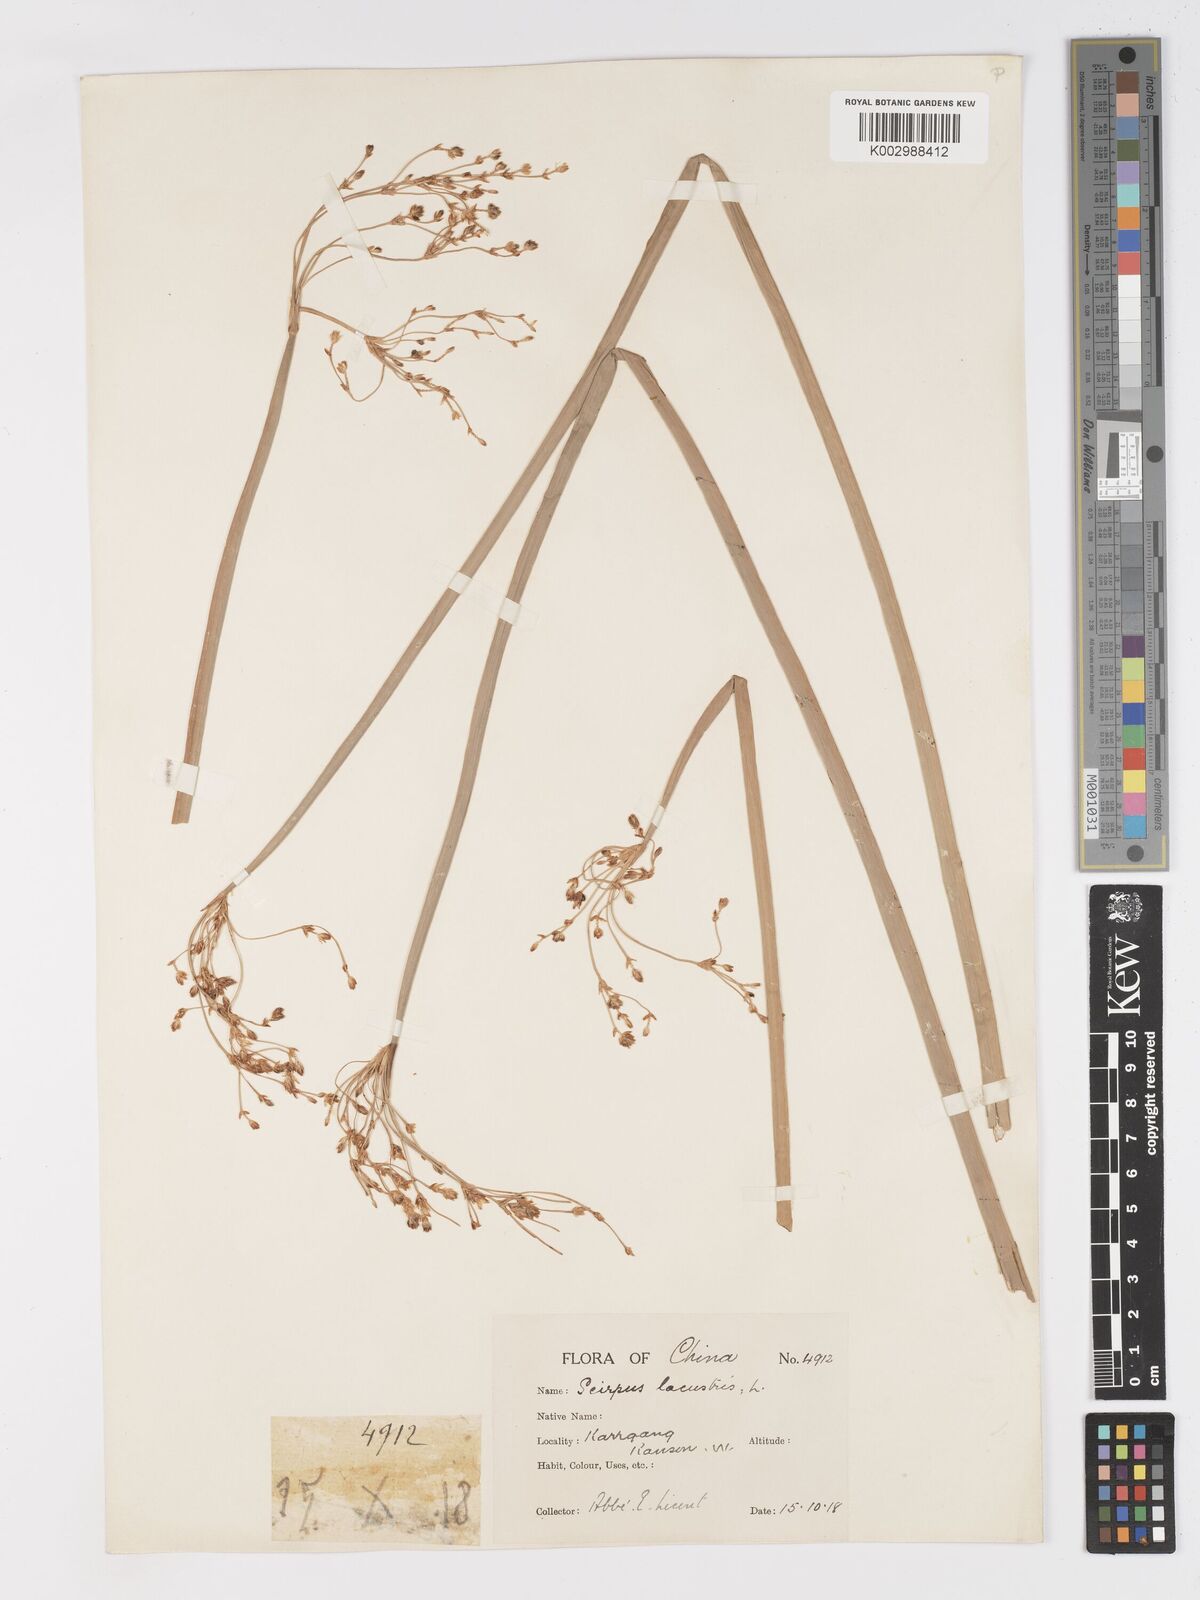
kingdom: Plantae
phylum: Tracheophyta
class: Liliopsida
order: Poales
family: Cyperaceae
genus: Schoenoplectus
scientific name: Schoenoplectus lacustris
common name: Common club-rush
